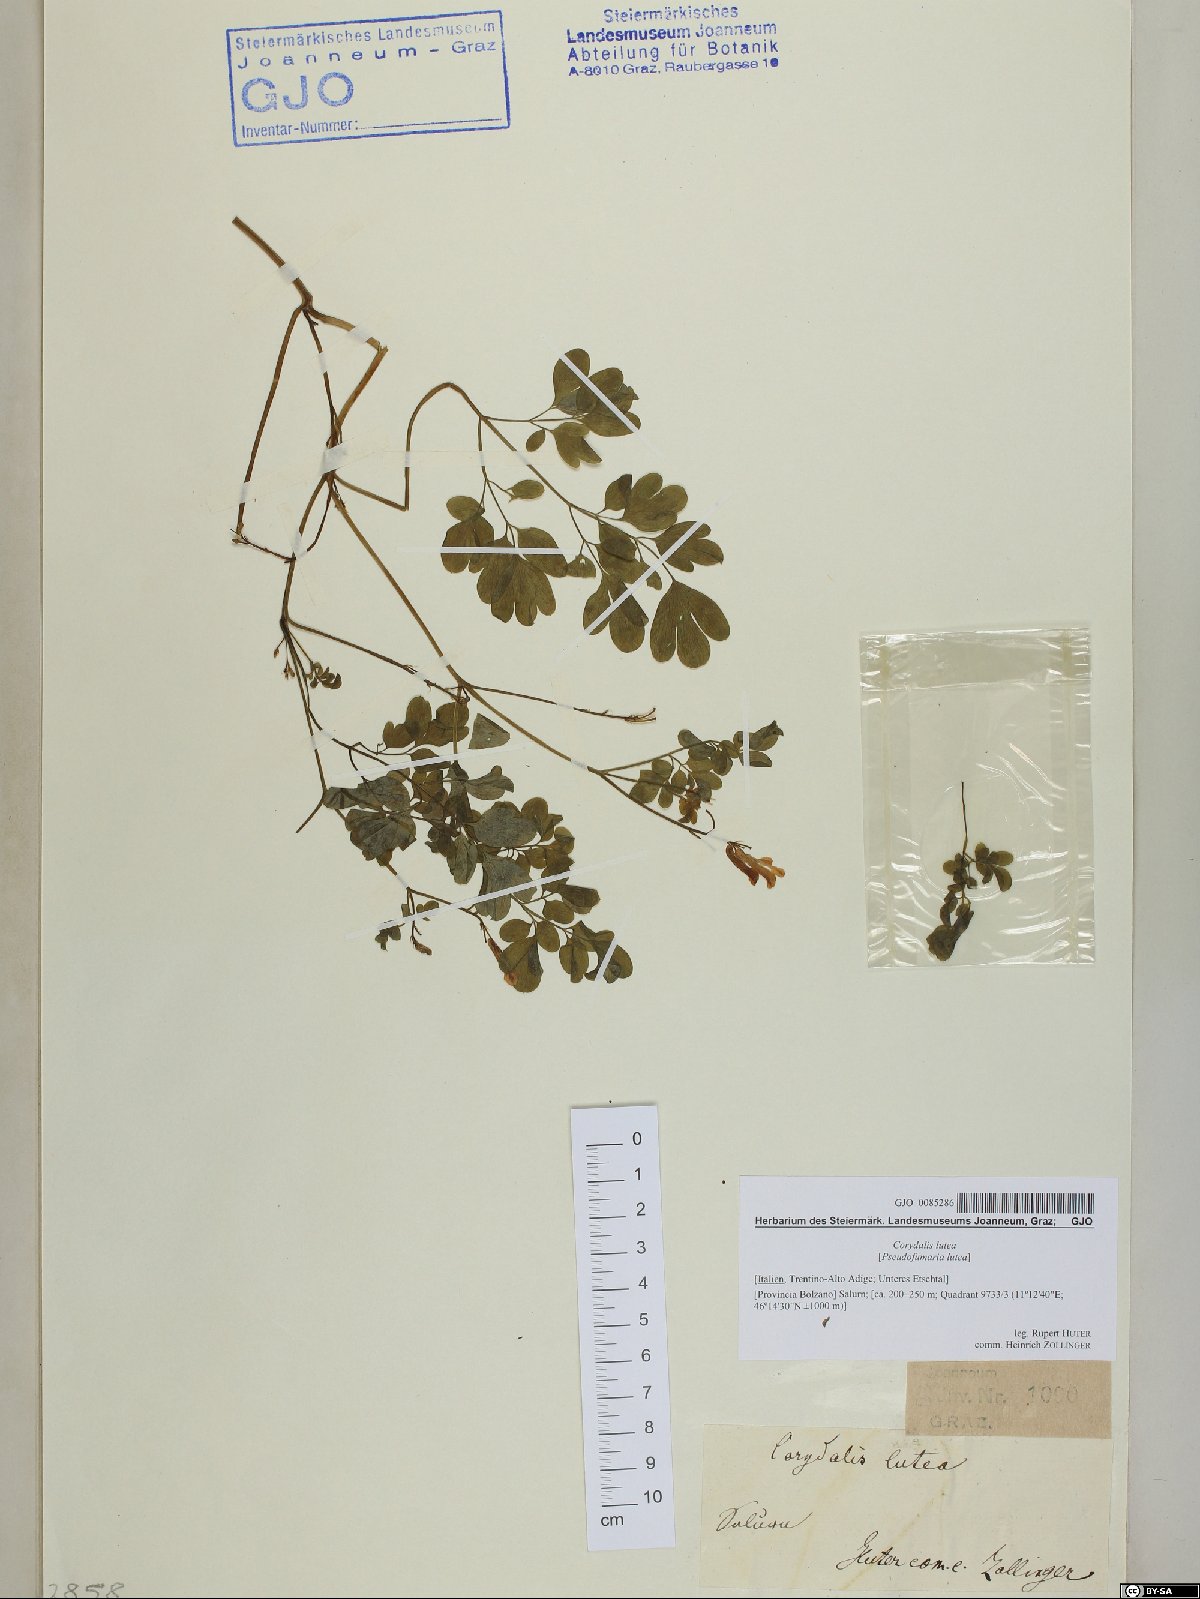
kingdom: Plantae
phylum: Tracheophyta
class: Magnoliopsida
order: Ranunculales
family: Papaveraceae
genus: Pseudofumaria
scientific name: Pseudofumaria lutea
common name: Yellow corydalis
